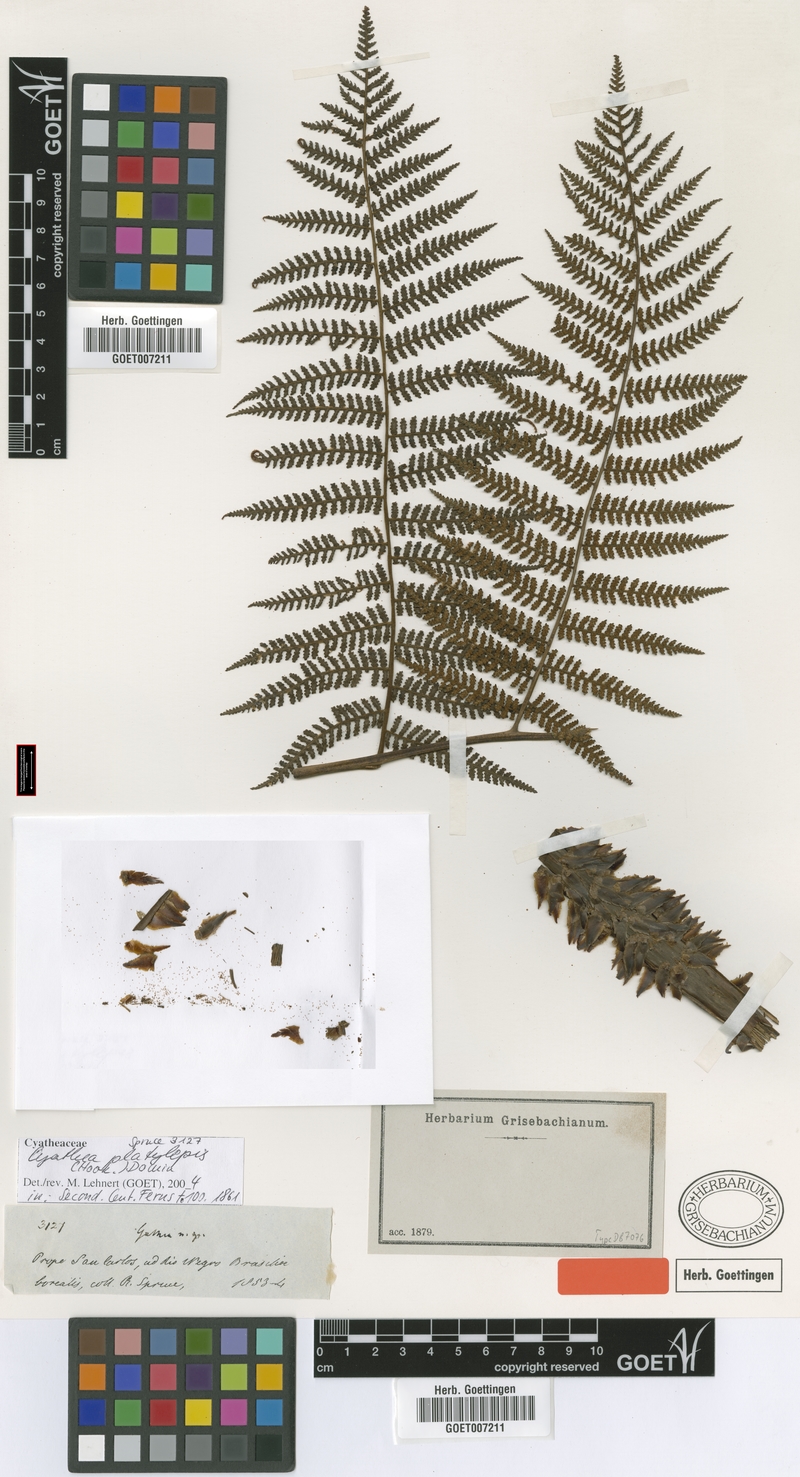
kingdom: Plantae
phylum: Tracheophyta
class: Polypodiopsida
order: Cyatheales
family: Cyatheaceae
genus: Cyathea
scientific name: Cyathea platylepis
